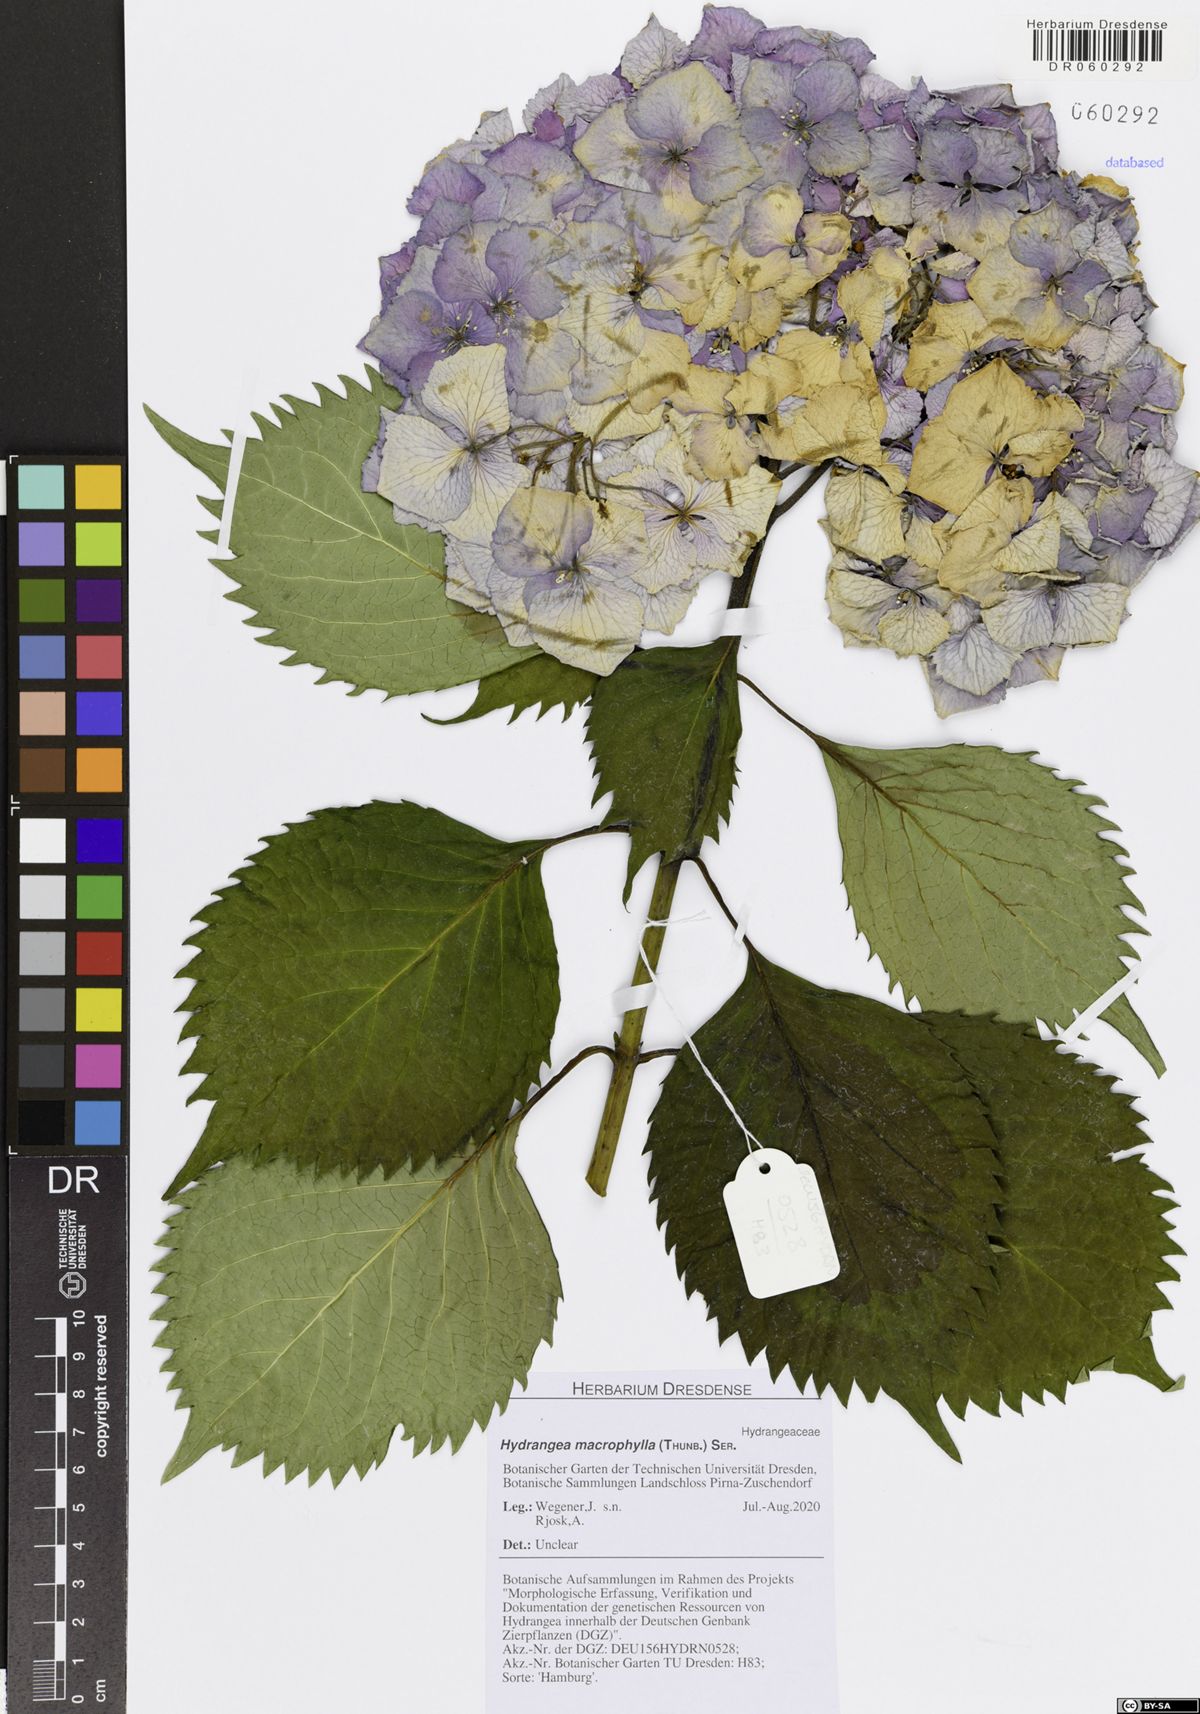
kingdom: Plantae
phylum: Tracheophyta
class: Magnoliopsida
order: Cornales
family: Hydrangeaceae
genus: Hydrangea
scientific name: Hydrangea macrophylla
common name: Hydrangea
